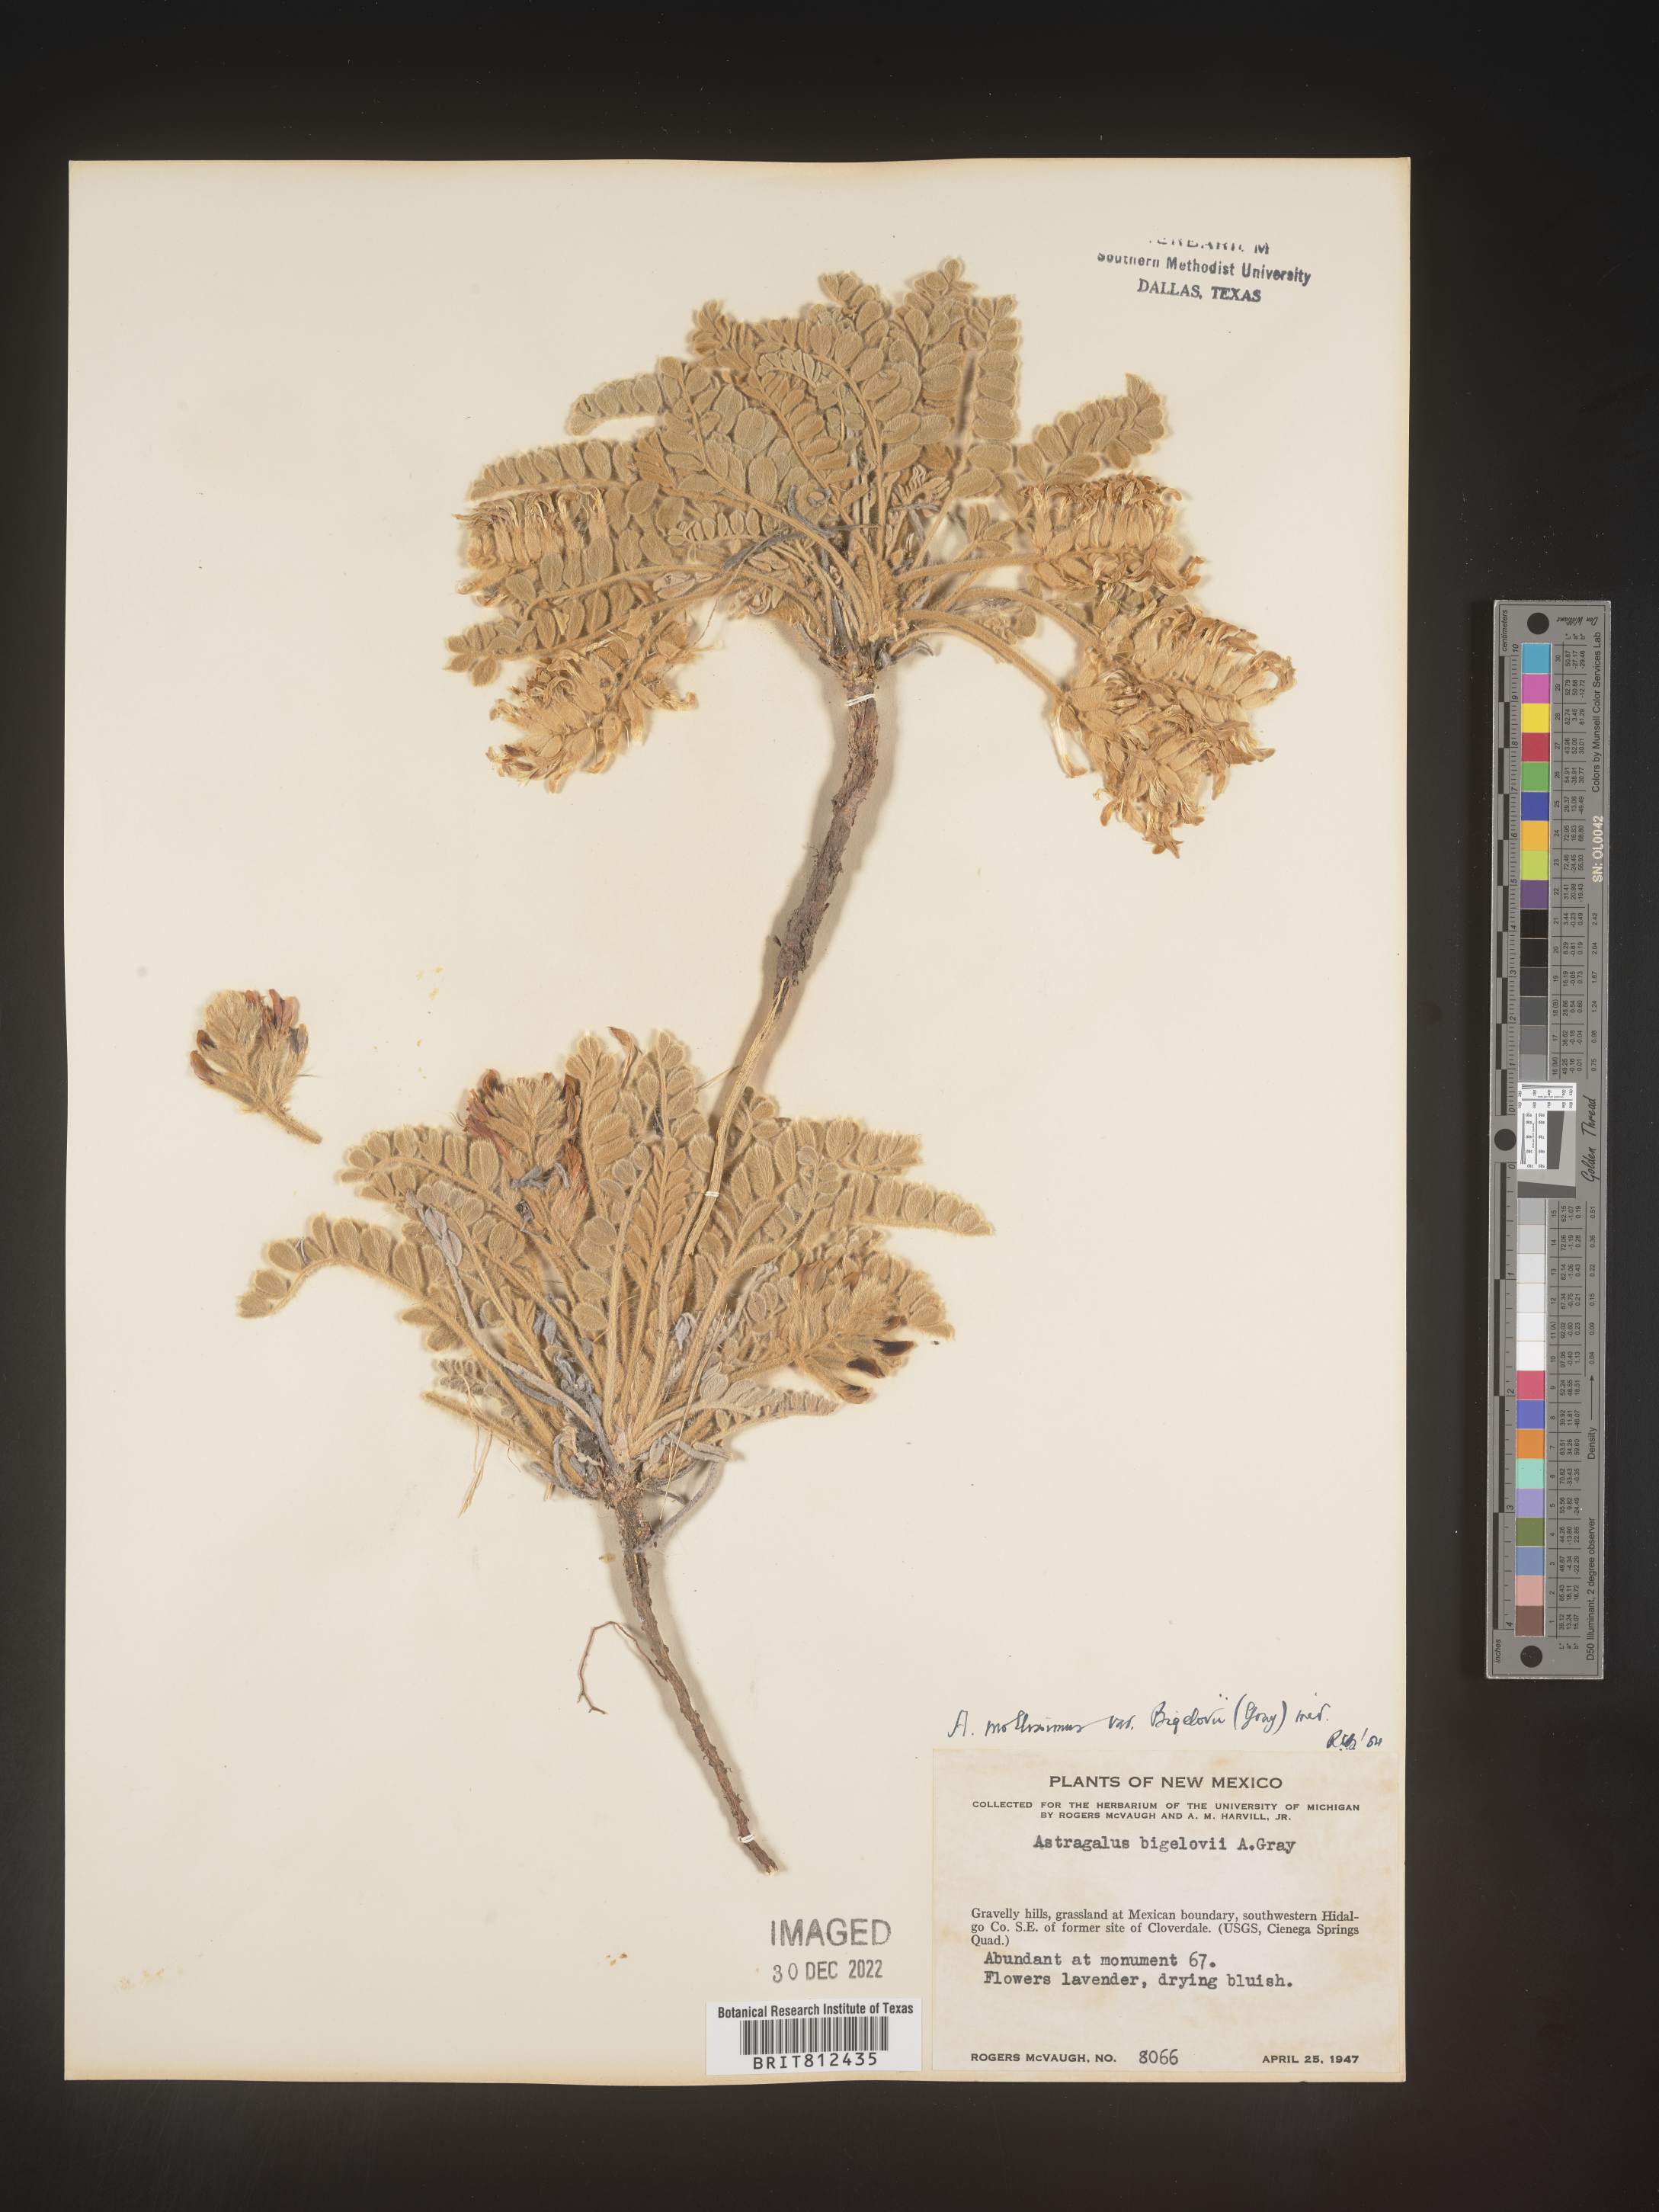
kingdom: Plantae
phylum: Tracheophyta
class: Magnoliopsida
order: Fabales
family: Fabaceae
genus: Astragalus
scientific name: Astragalus
